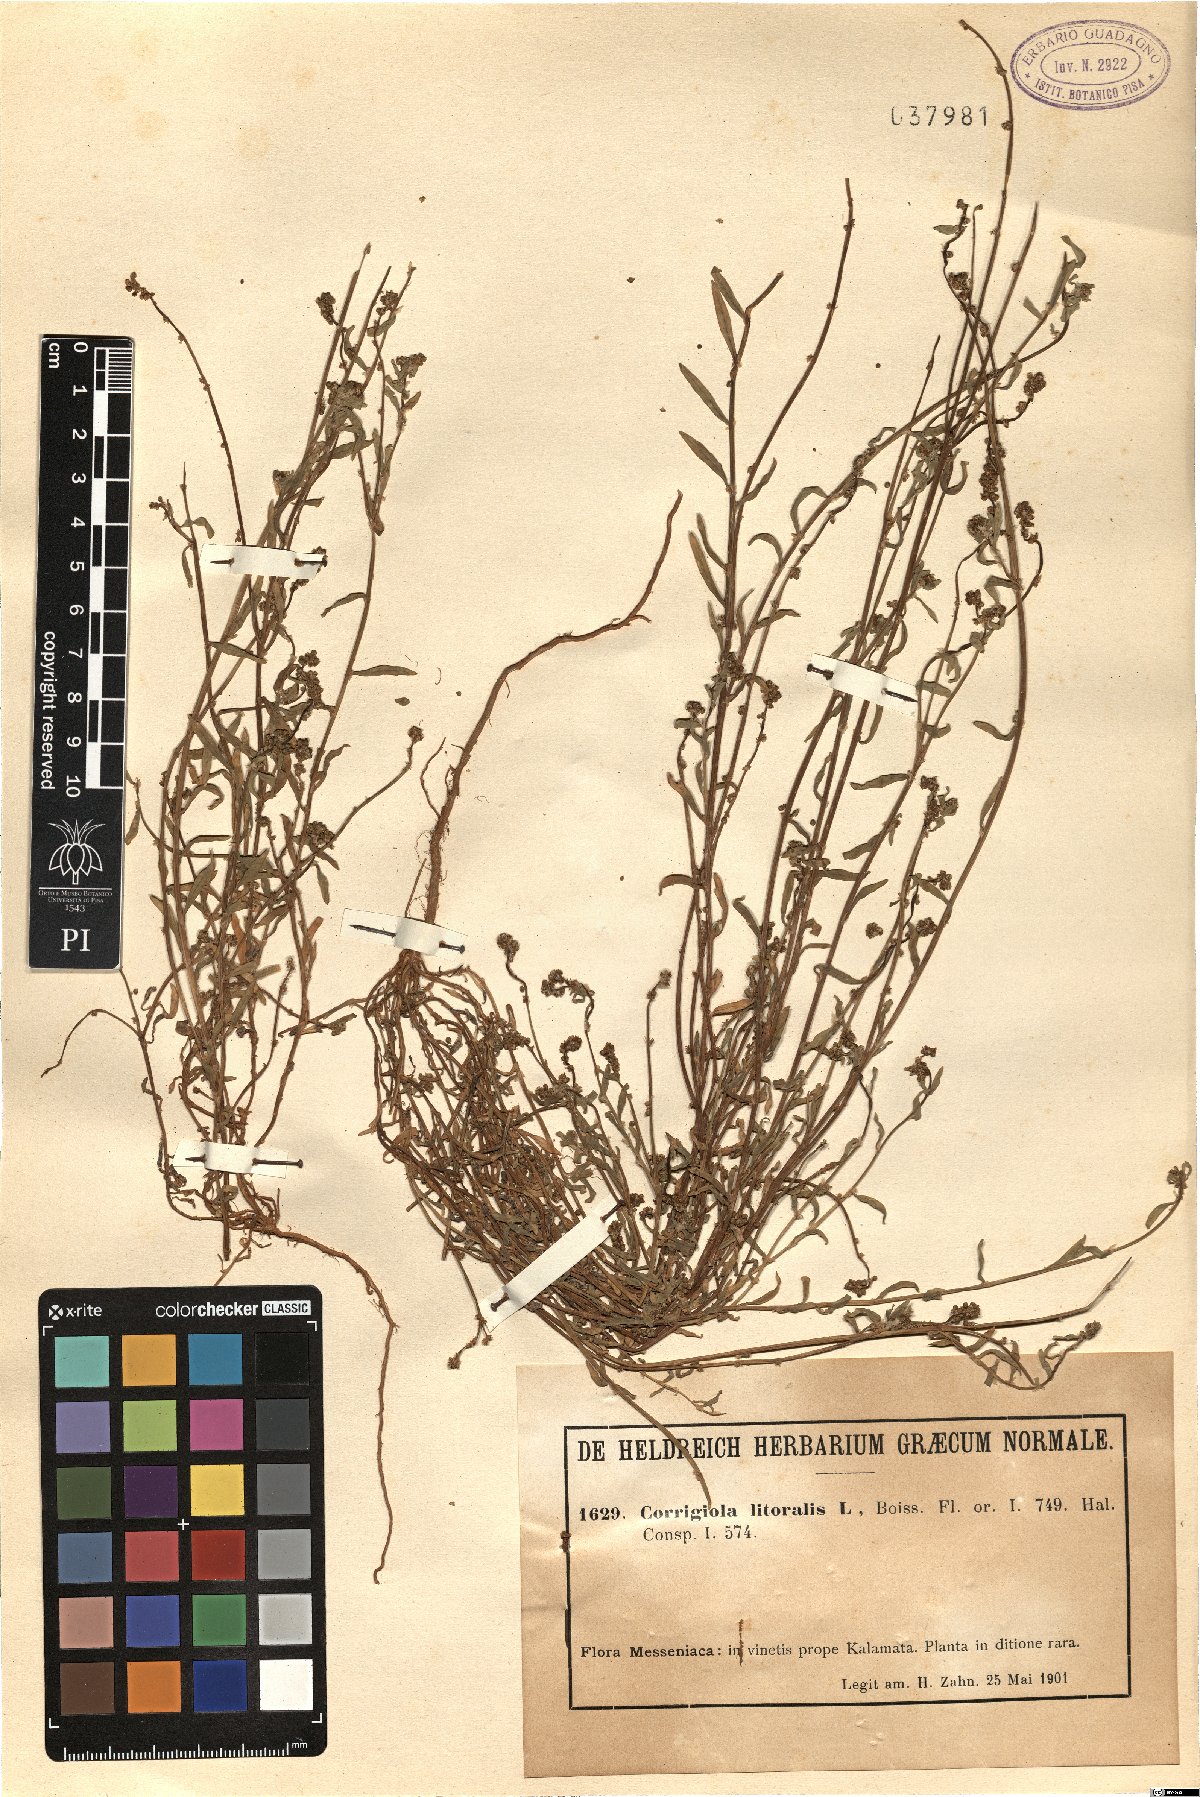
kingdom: Plantae
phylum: Tracheophyta
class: Magnoliopsida
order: Caryophyllales
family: Caryophyllaceae
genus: Corrigiola
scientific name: Corrigiola litoralis
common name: Strapwort
